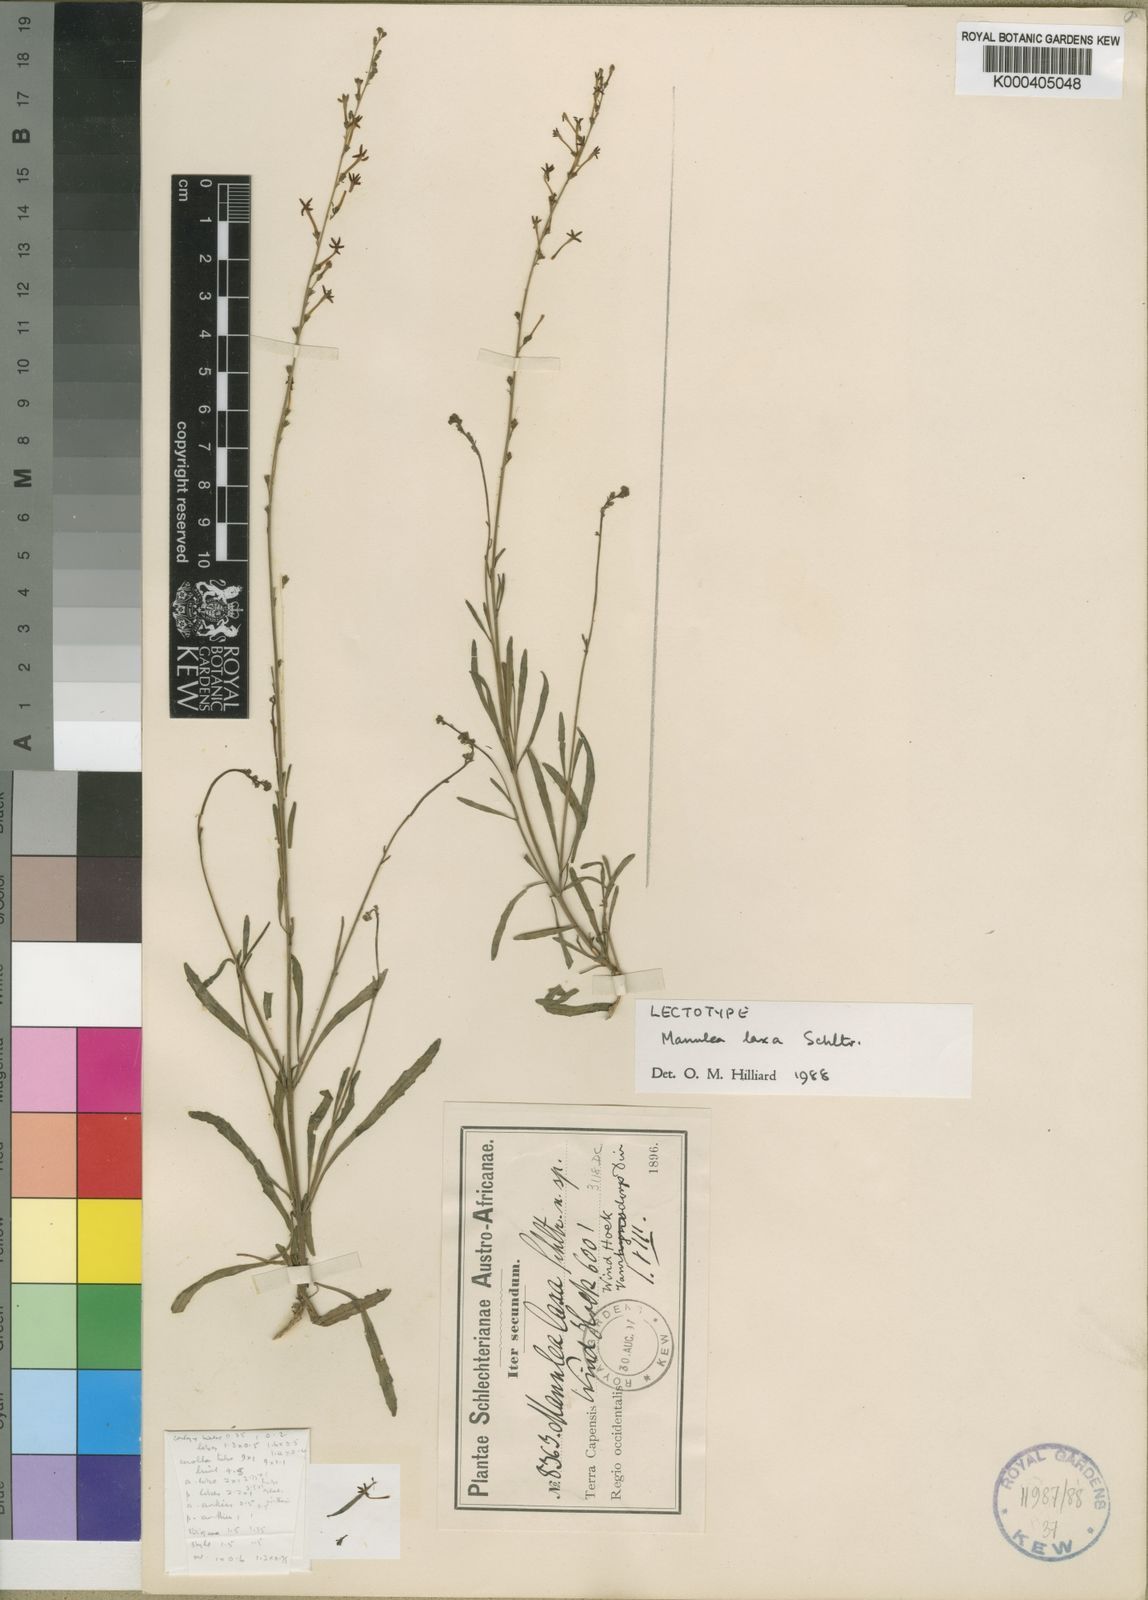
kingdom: Plantae
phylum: Tracheophyta
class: Magnoliopsida
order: Lamiales
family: Scrophulariaceae
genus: Manulea
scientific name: Manulea laxa
